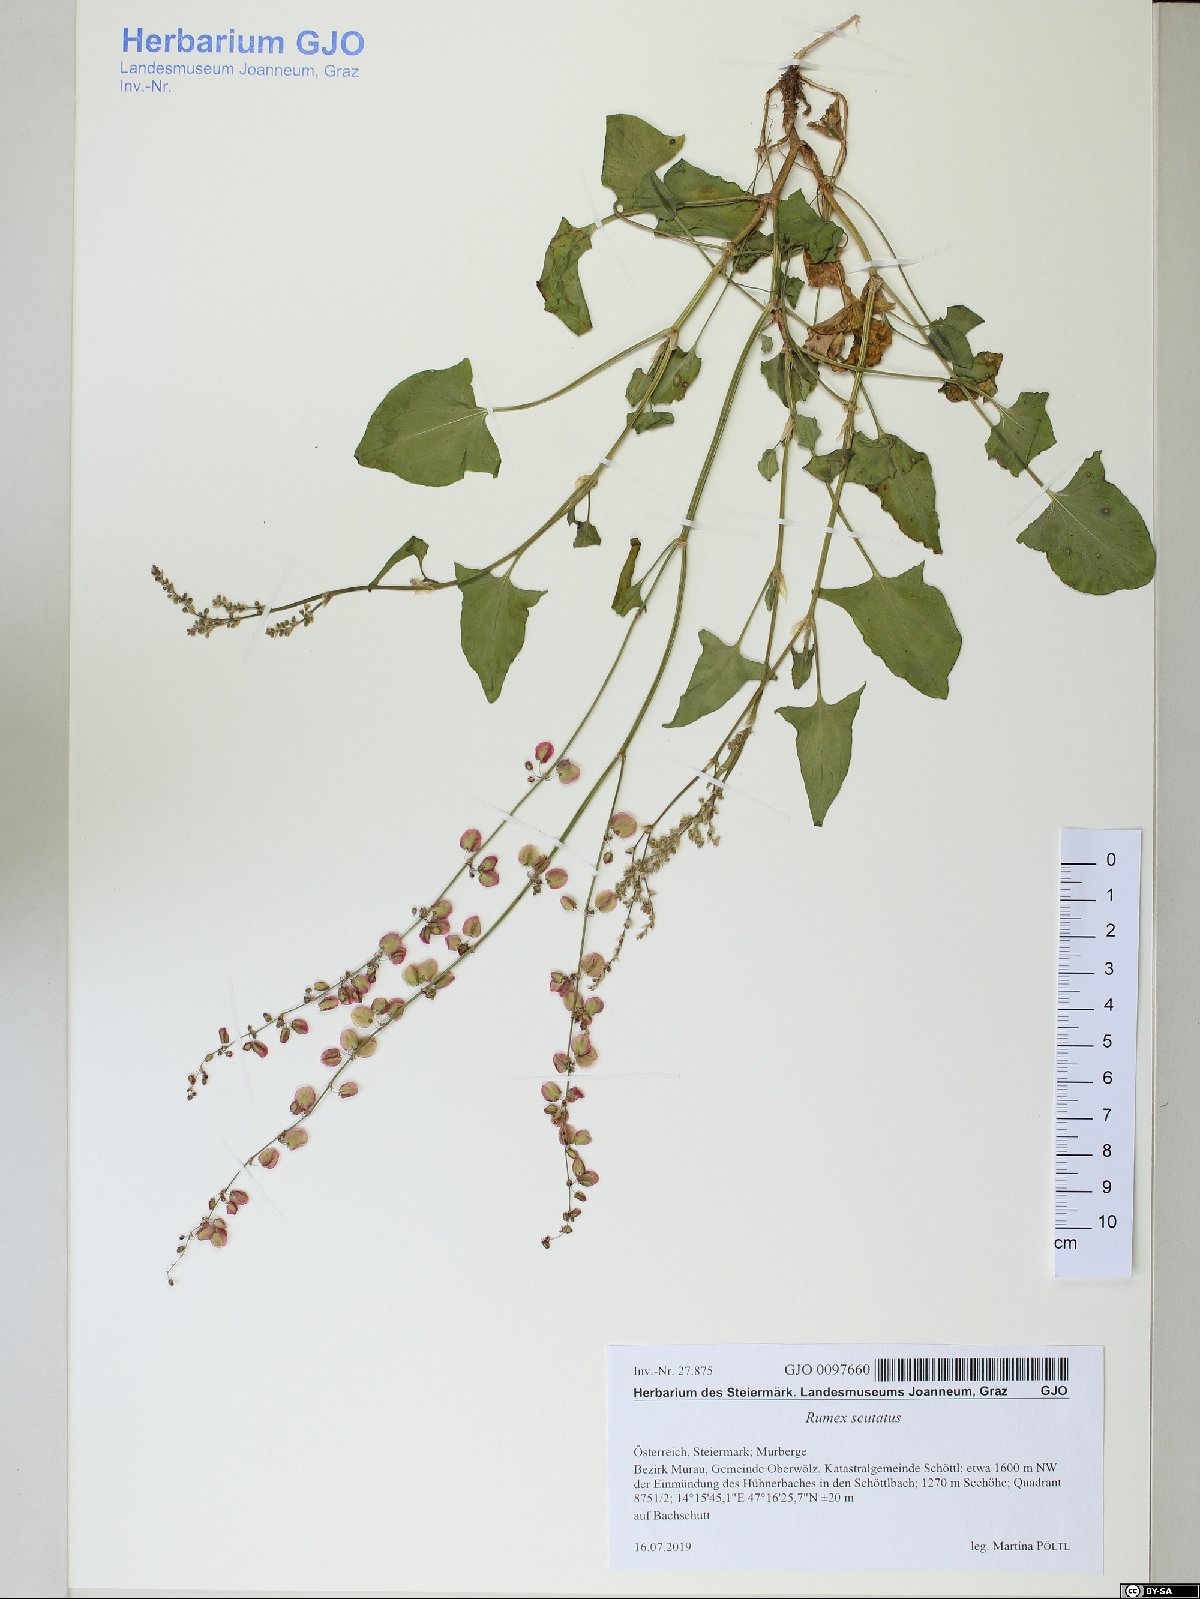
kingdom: Plantae
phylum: Tracheophyta
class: Magnoliopsida
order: Caryophyllales
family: Polygonaceae
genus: Rumex
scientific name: Rumex scutatus
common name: French sorrel
